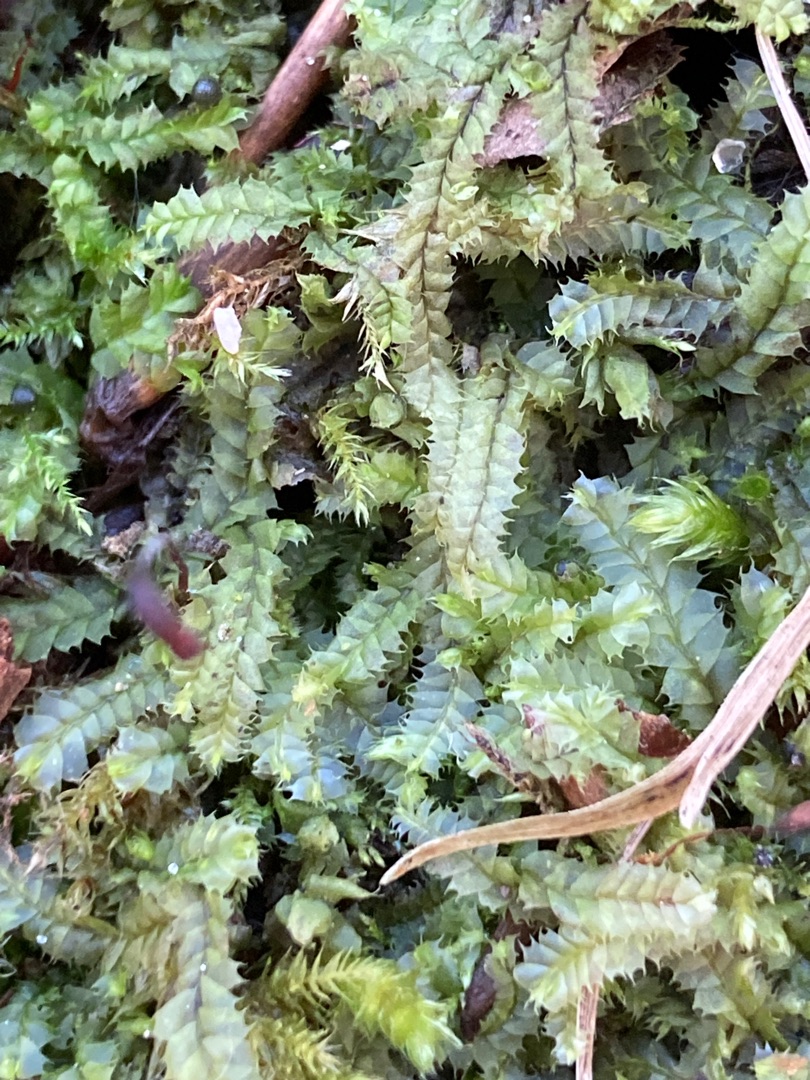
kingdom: Plantae
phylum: Marchantiophyta
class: Jungermanniopsida
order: Jungermanniales
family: Lophocoleaceae
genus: Lophocolea
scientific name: Lophocolea bidentata
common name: Sylspidset kamsvøb
